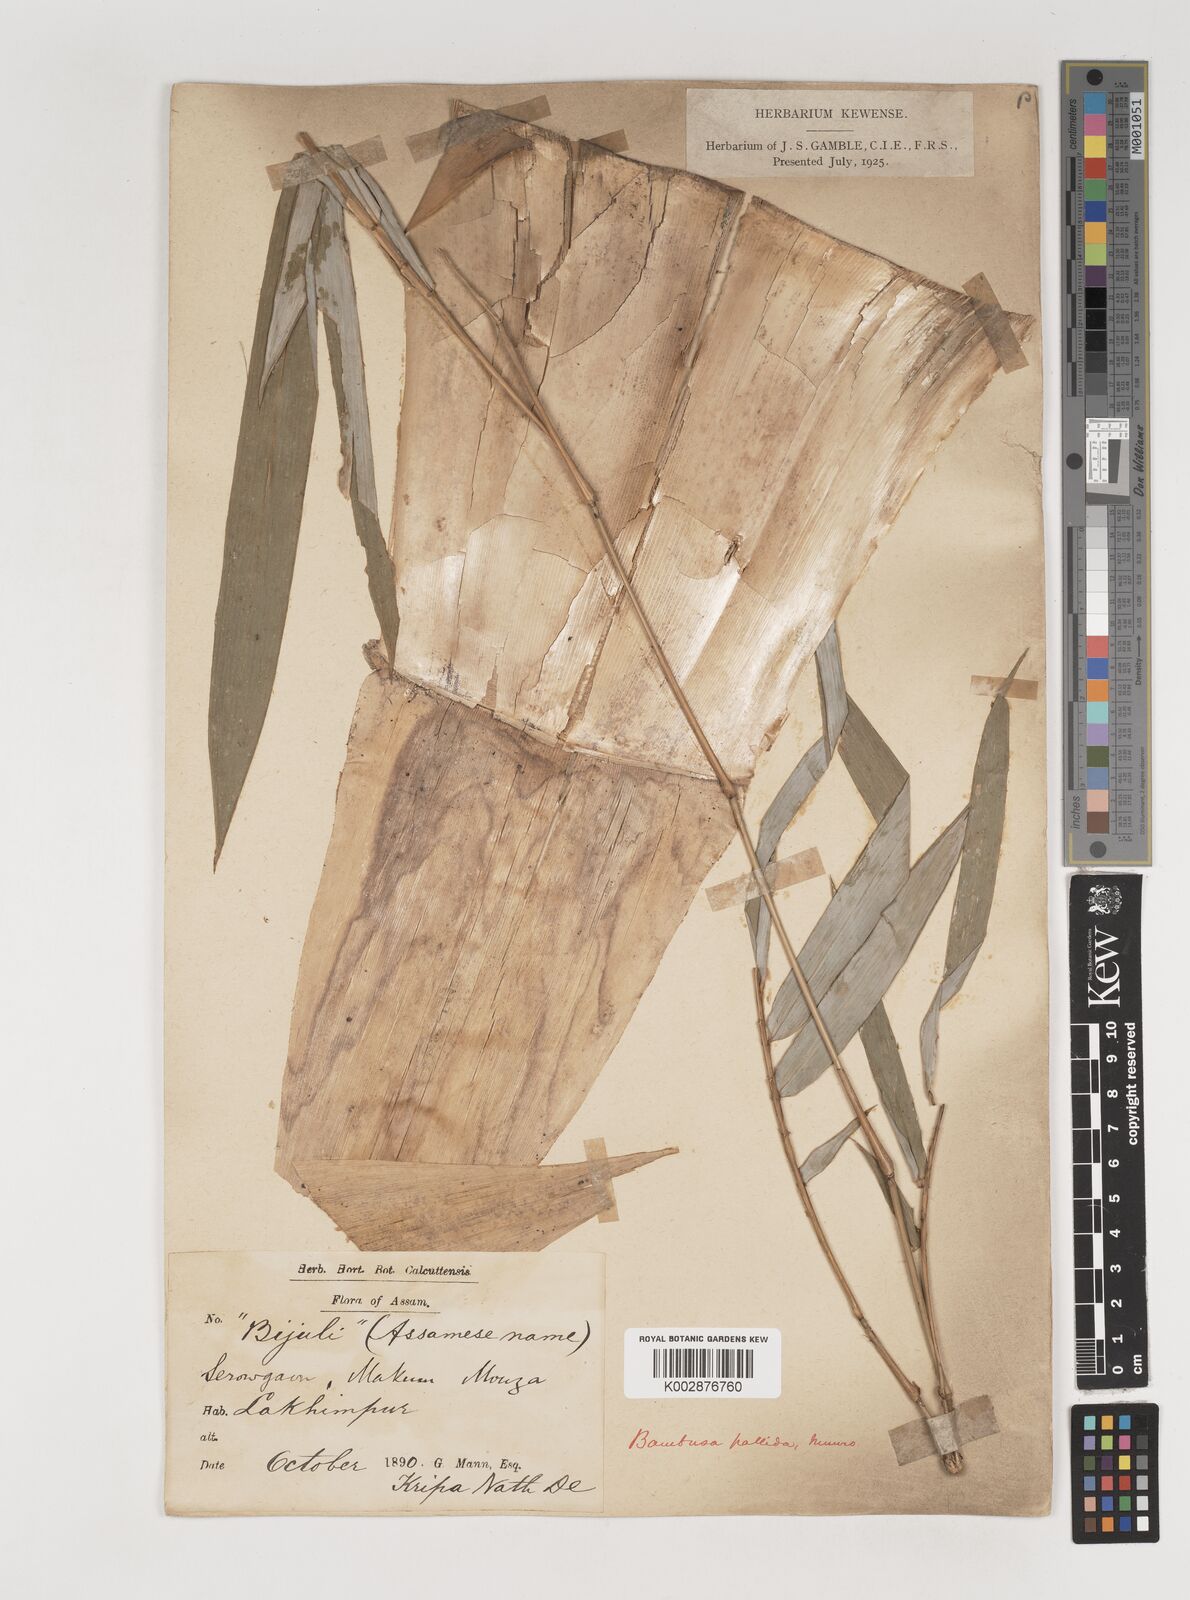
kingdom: Plantae
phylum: Tracheophyta
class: Liliopsida
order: Poales
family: Poaceae
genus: Bambusa
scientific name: Bambusa pallida
